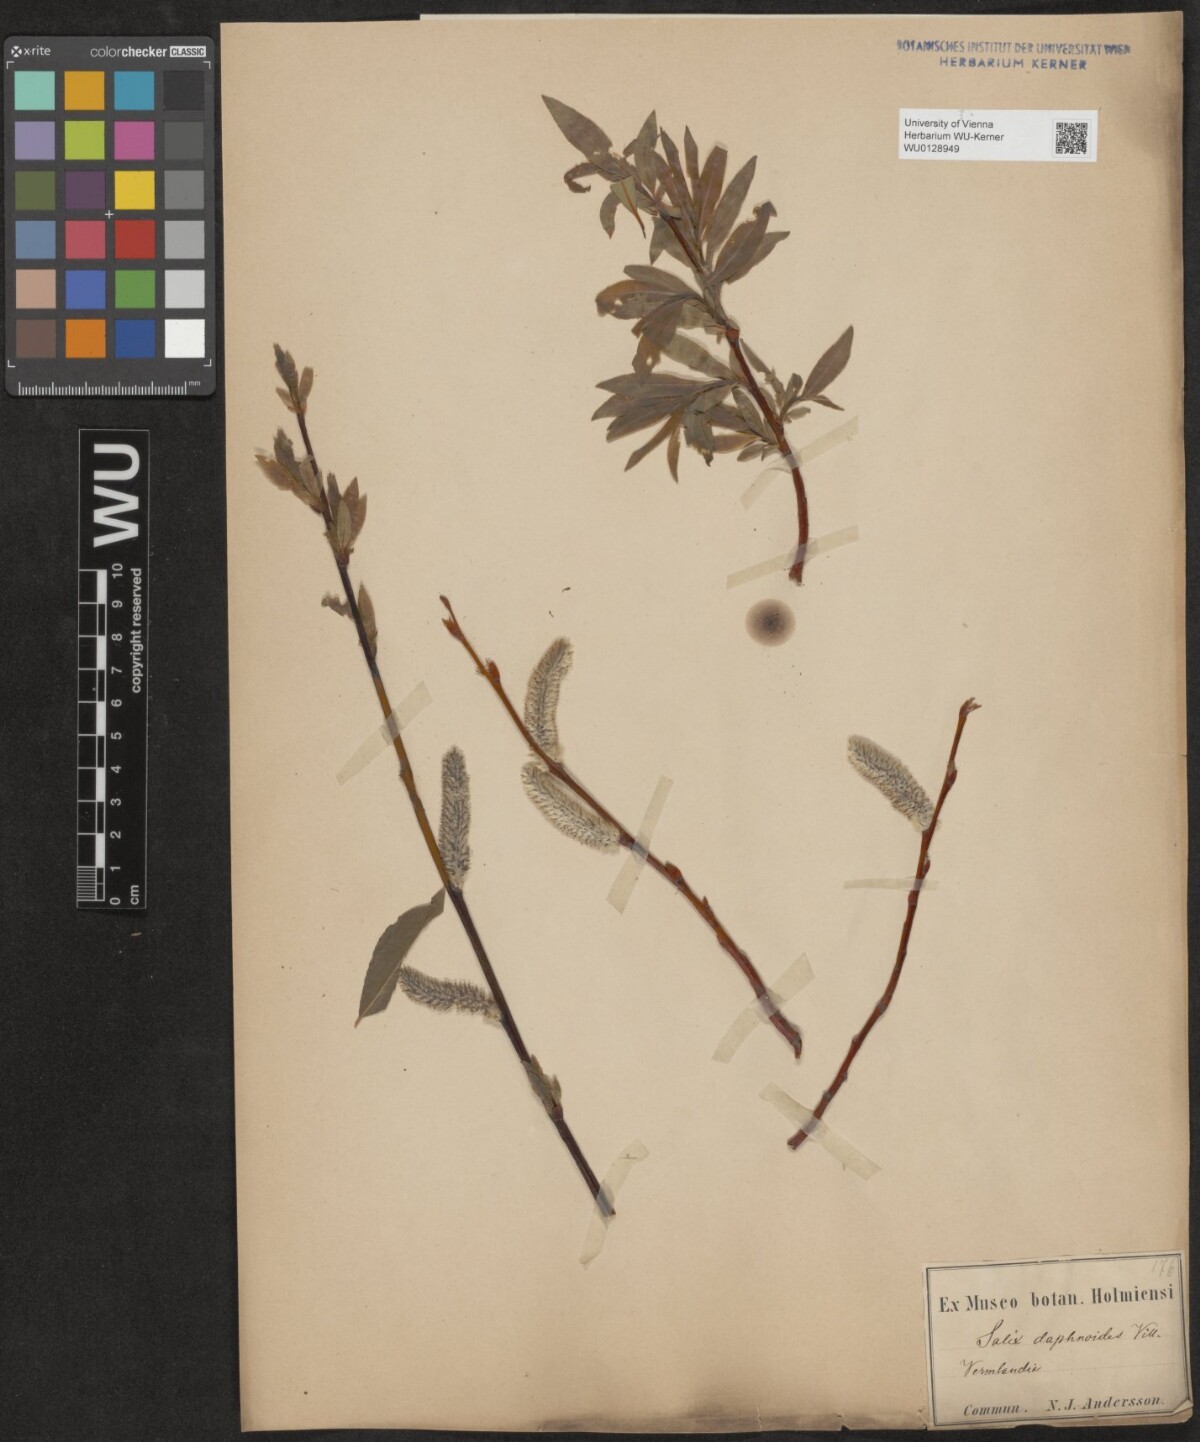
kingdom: Plantae
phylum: Tracheophyta
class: Magnoliopsida
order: Malpighiales
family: Salicaceae
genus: Salix
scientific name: Salix daphnoides
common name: European violet-willow
